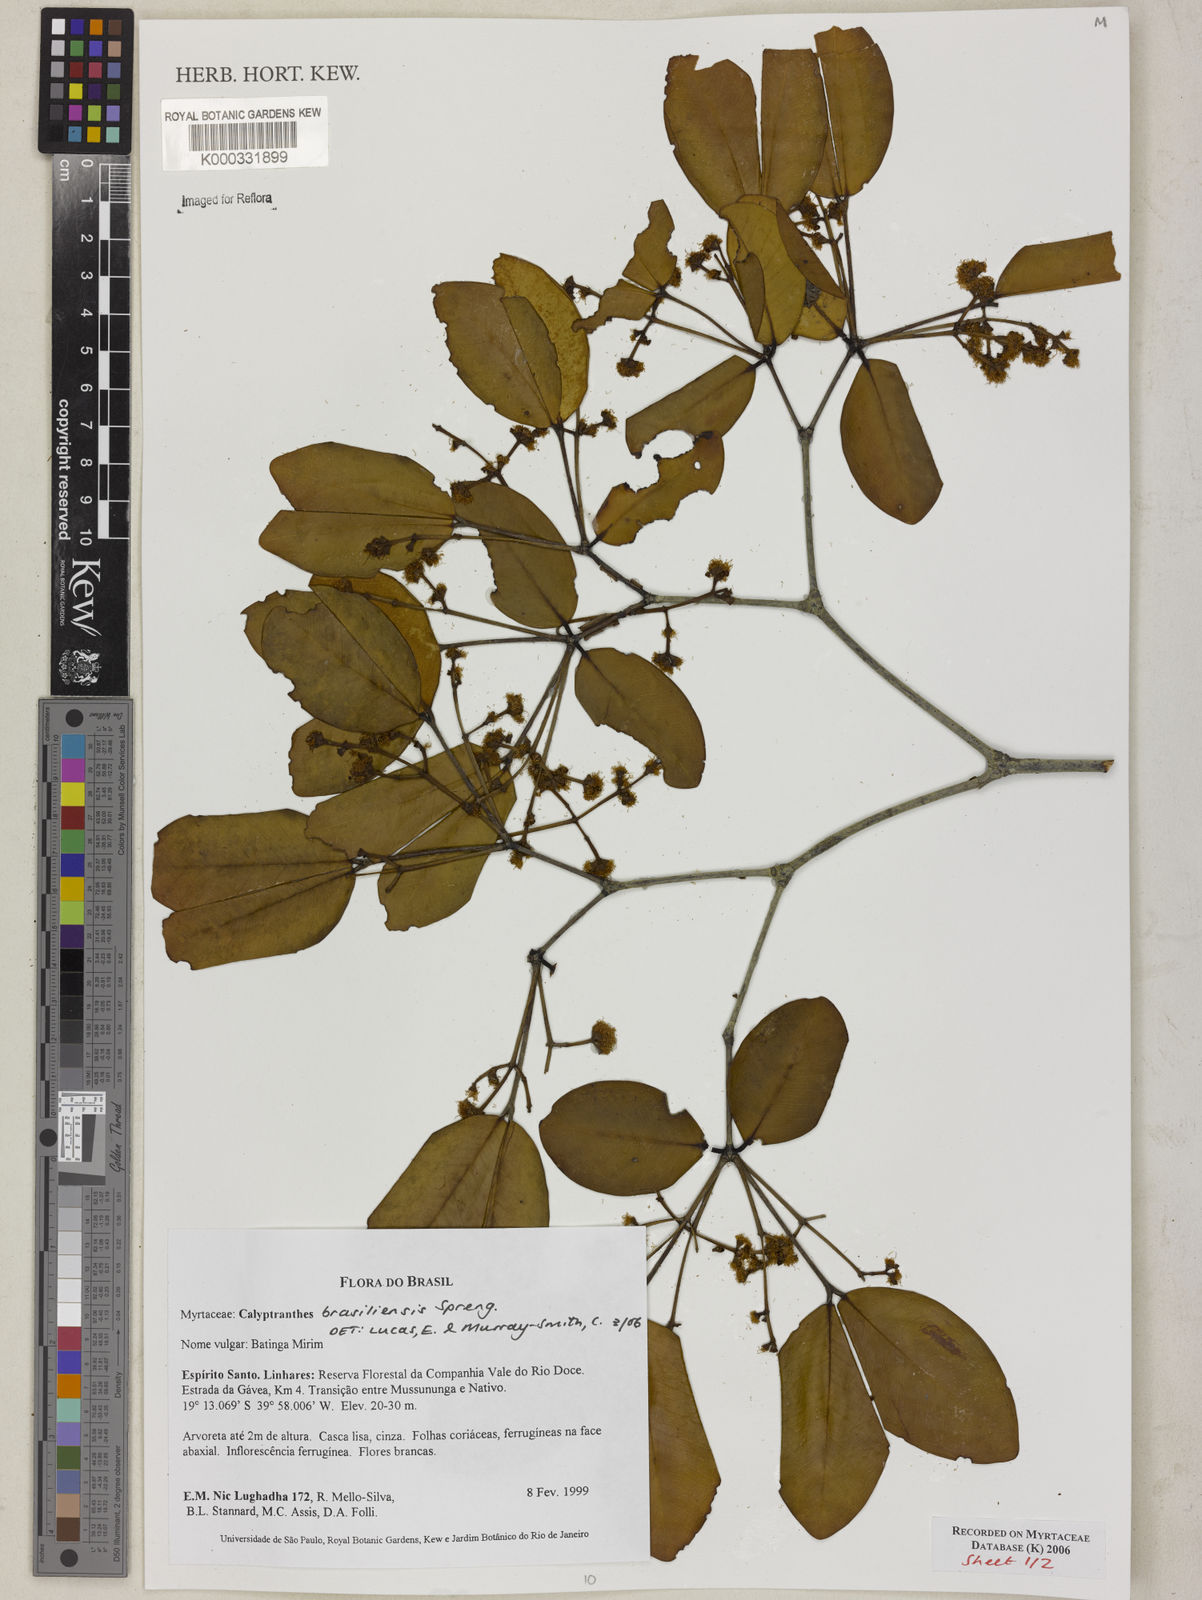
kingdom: Plantae
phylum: Tracheophyta
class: Magnoliopsida
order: Myrtales
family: Myrtaceae
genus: Myrcia
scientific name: Myrcia neobrasiliensis
